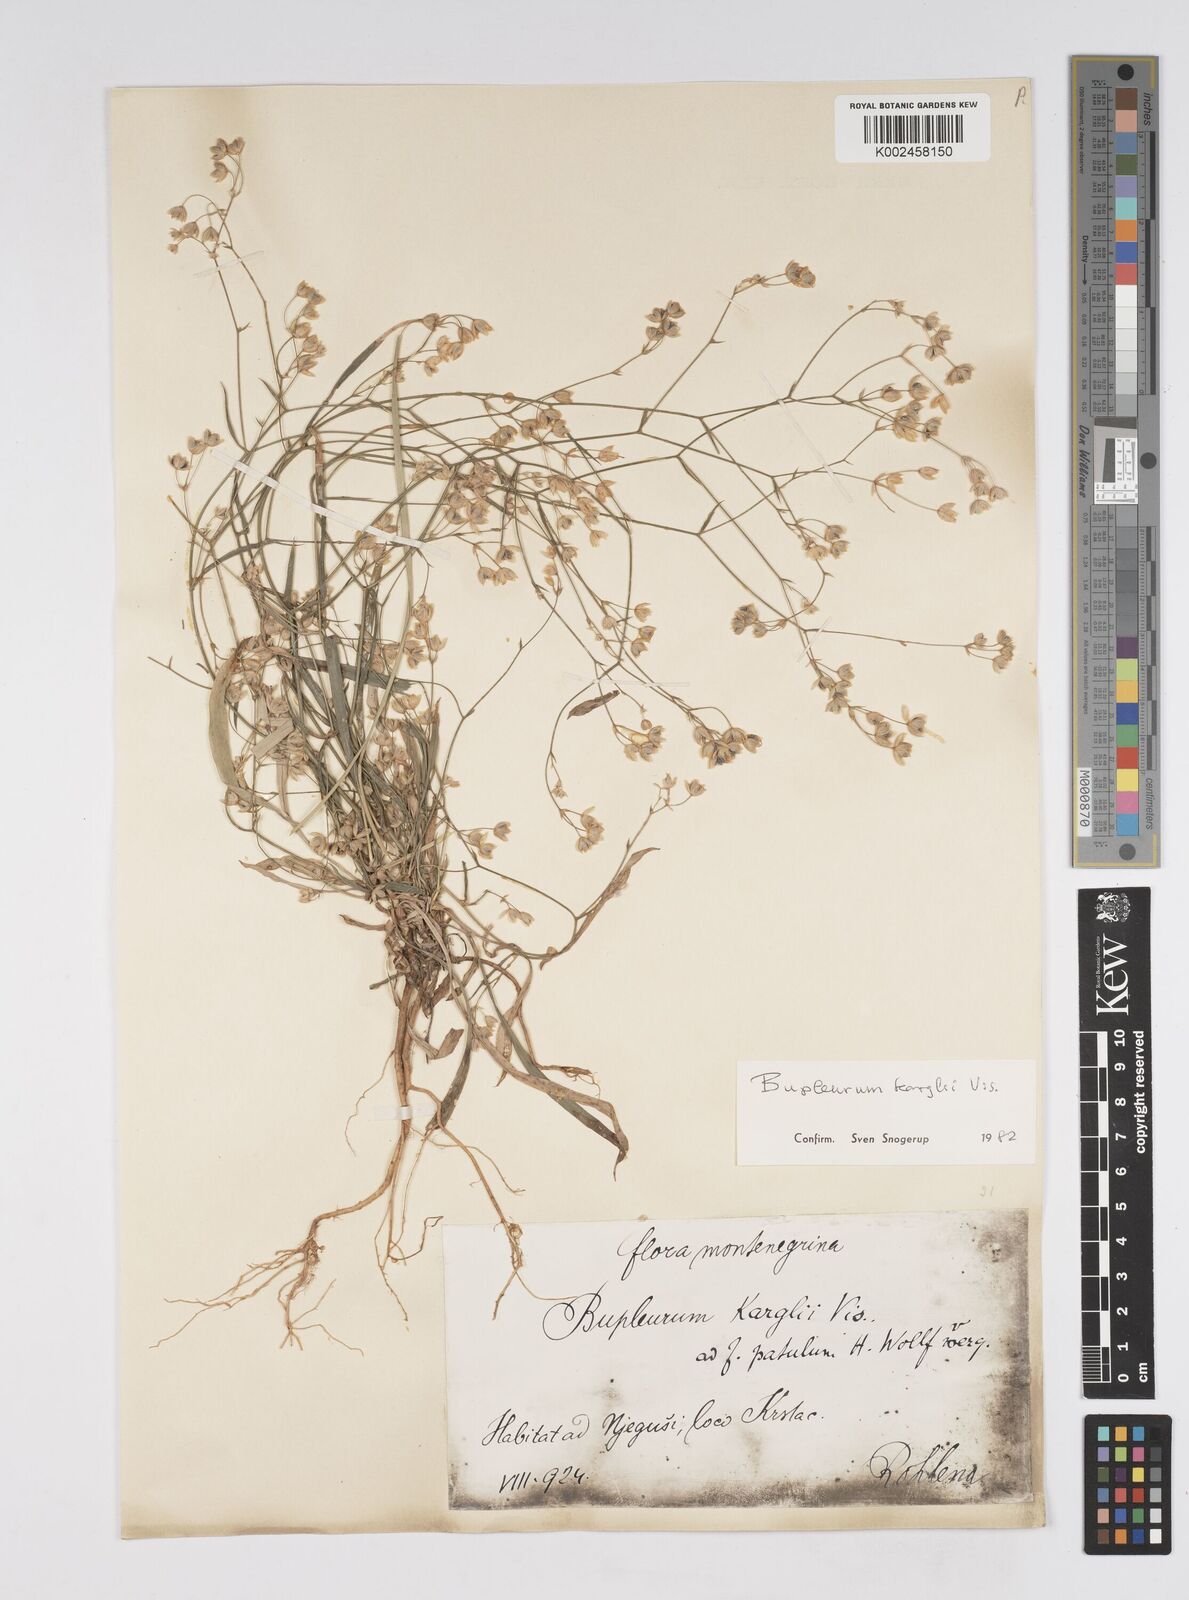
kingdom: Plantae
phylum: Tracheophyta
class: Magnoliopsida
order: Apiales
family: Apiaceae
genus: Bupleurum
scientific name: Bupleurum karglii
